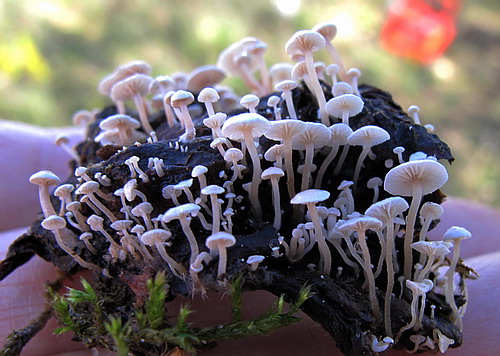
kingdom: Fungi
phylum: Basidiomycota
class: Agaricomycetes
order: Agaricales
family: Tricholomataceae
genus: Collybia
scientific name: Collybia cirrhata
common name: silke-lighat
